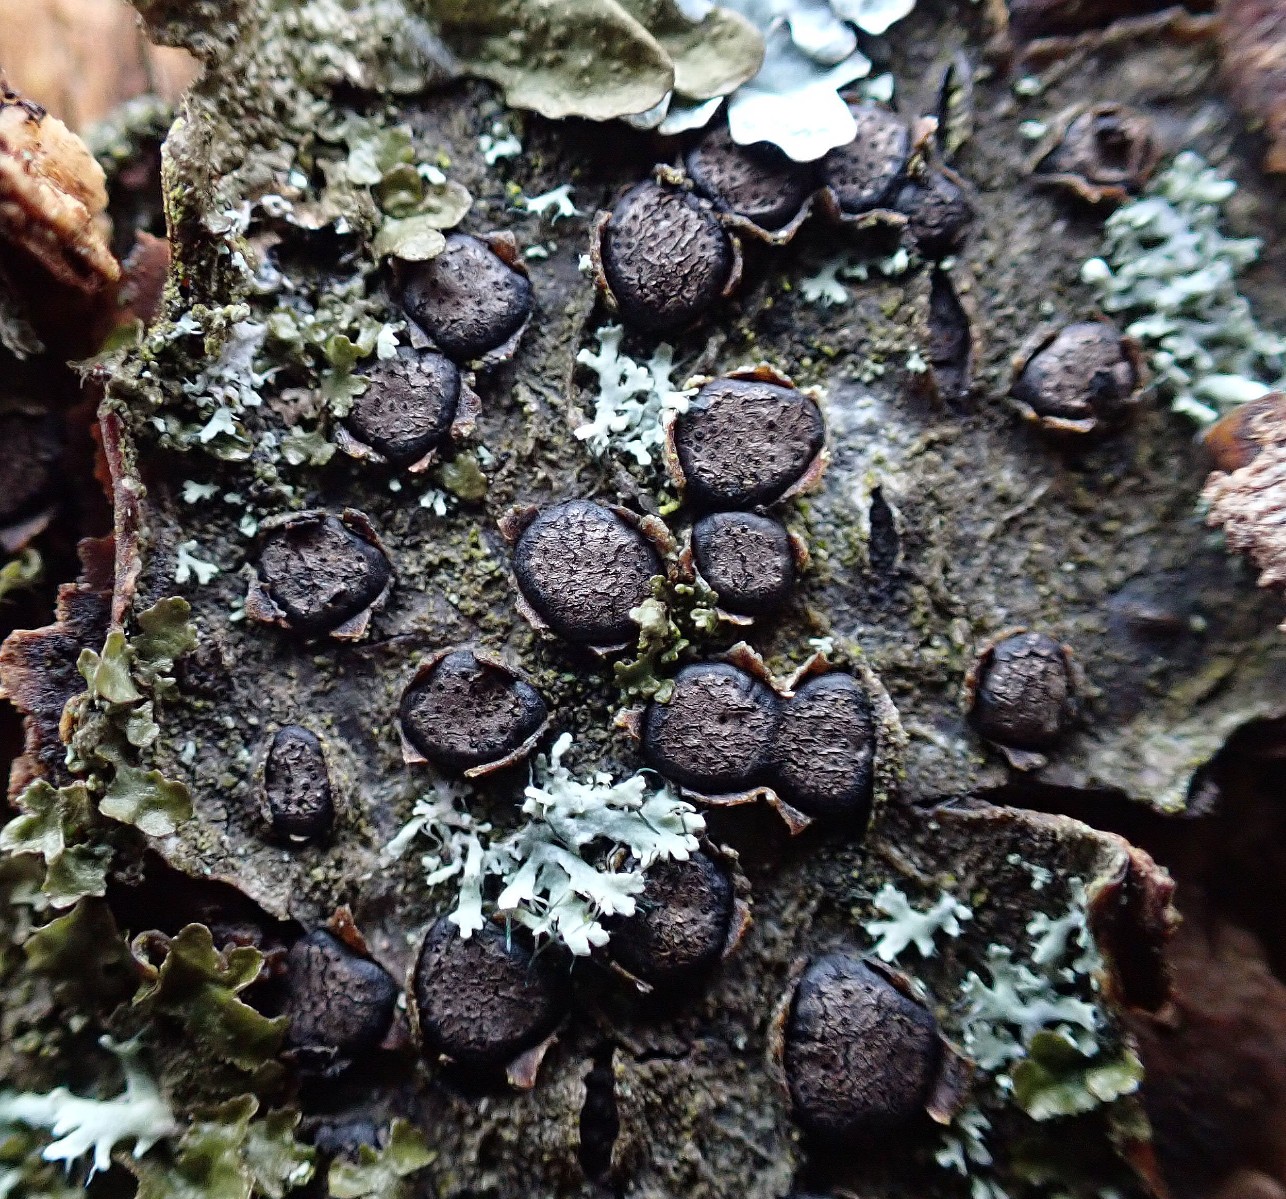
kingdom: Fungi
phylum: Ascomycota
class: Sordariomycetes
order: Xylariales
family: Diatrypaceae
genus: Diatrype
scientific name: Diatrype disciformis
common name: kant-kulskorpe
